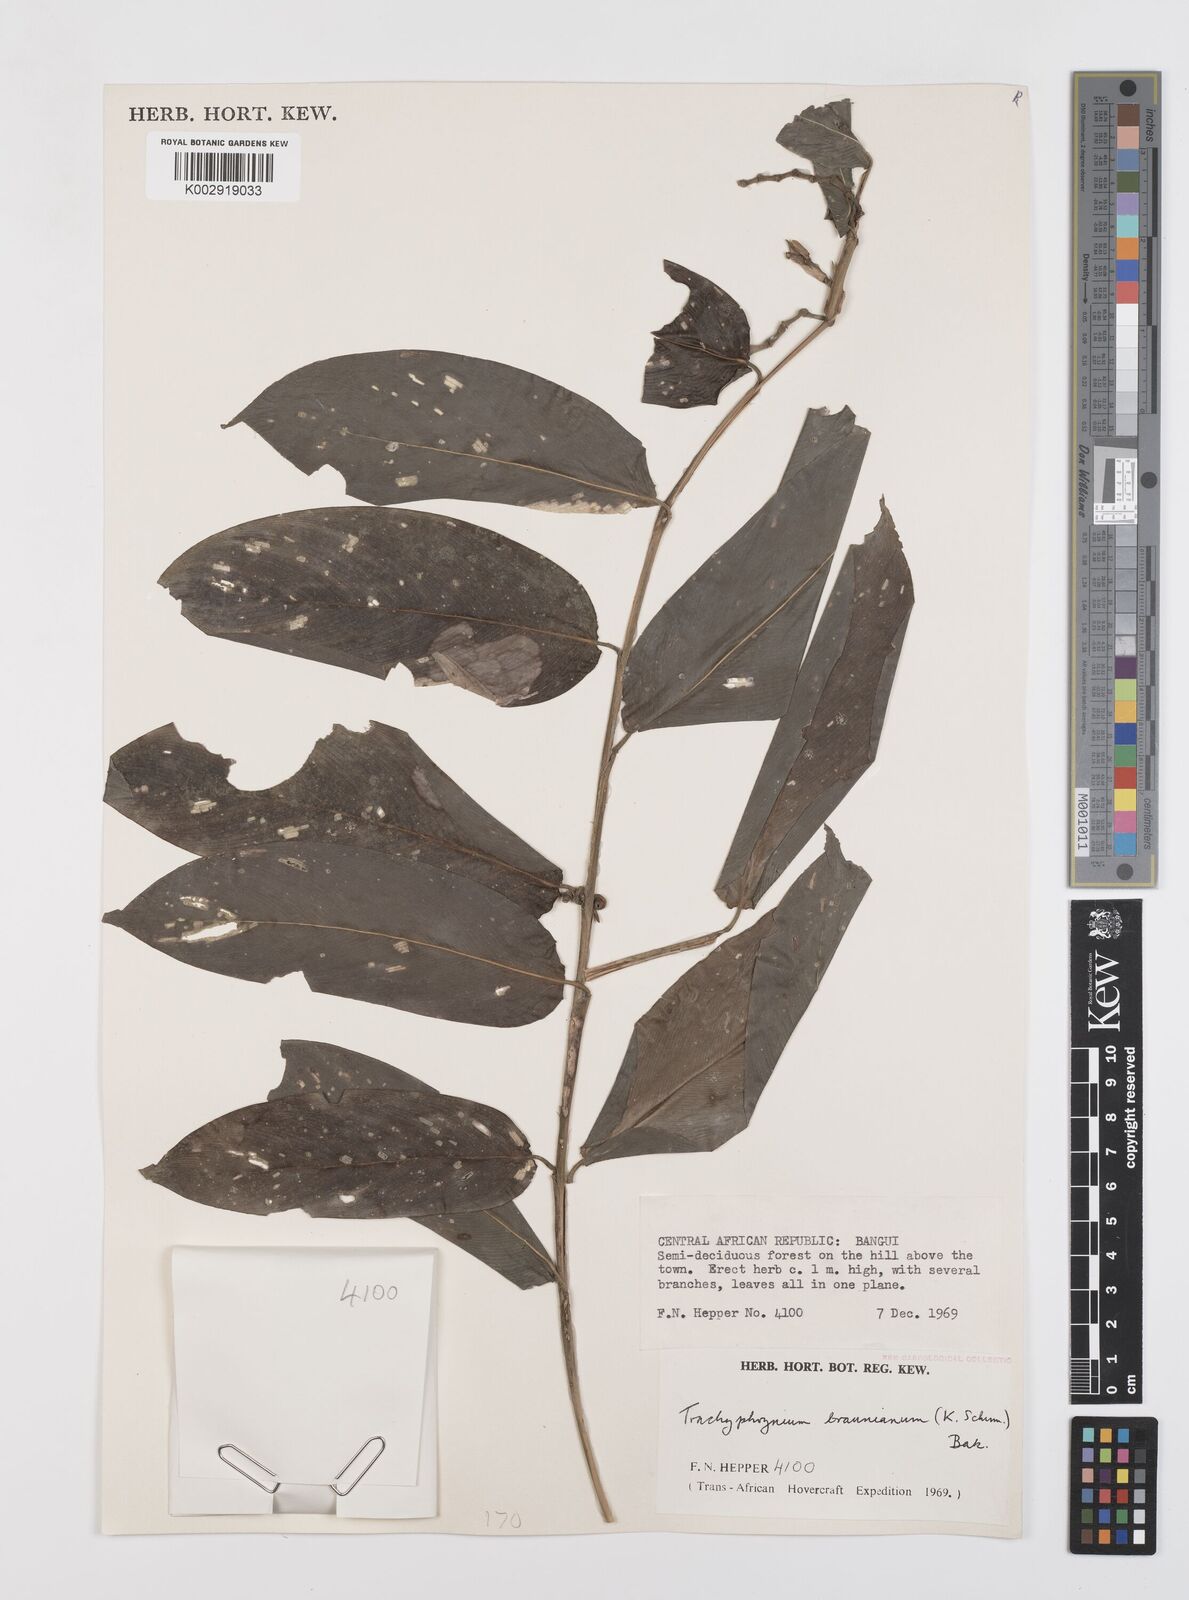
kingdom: Plantae
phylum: Tracheophyta
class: Liliopsida
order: Zingiberales
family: Marantaceae
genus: Trachyphrynium
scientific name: Trachyphrynium braunianum
